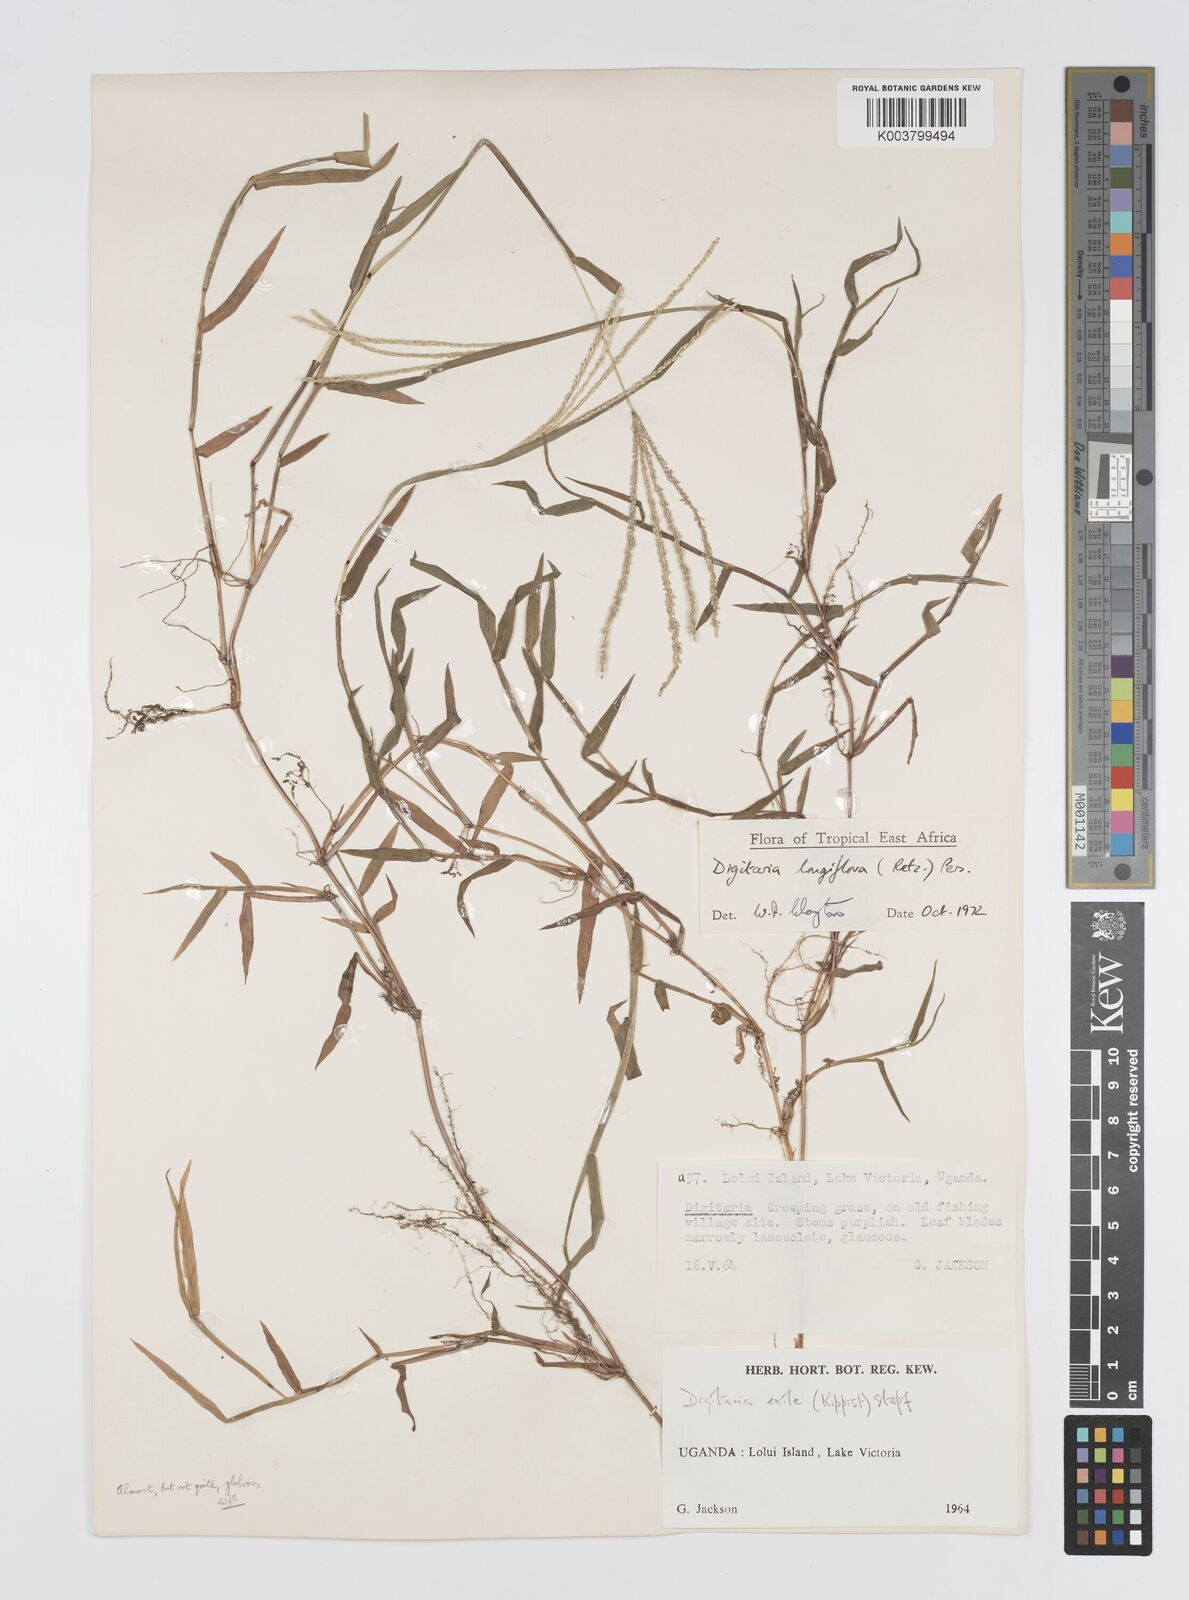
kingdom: Plantae
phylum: Tracheophyta
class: Liliopsida
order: Poales
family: Poaceae
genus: Digitaria
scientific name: Digitaria longiflora
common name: Wire crabgrass
